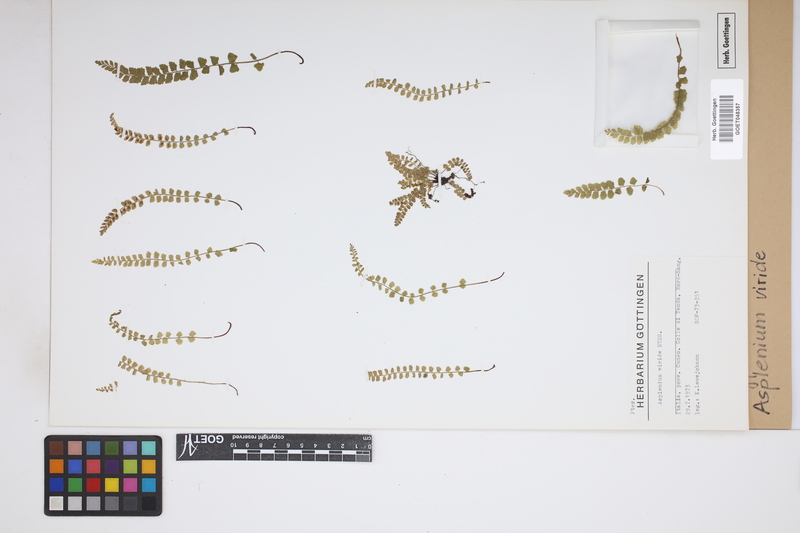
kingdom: Plantae
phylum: Tracheophyta
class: Polypodiopsida
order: Polypodiales
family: Aspleniaceae
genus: Asplenium
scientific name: Asplenium viride
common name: Green spleenwort
